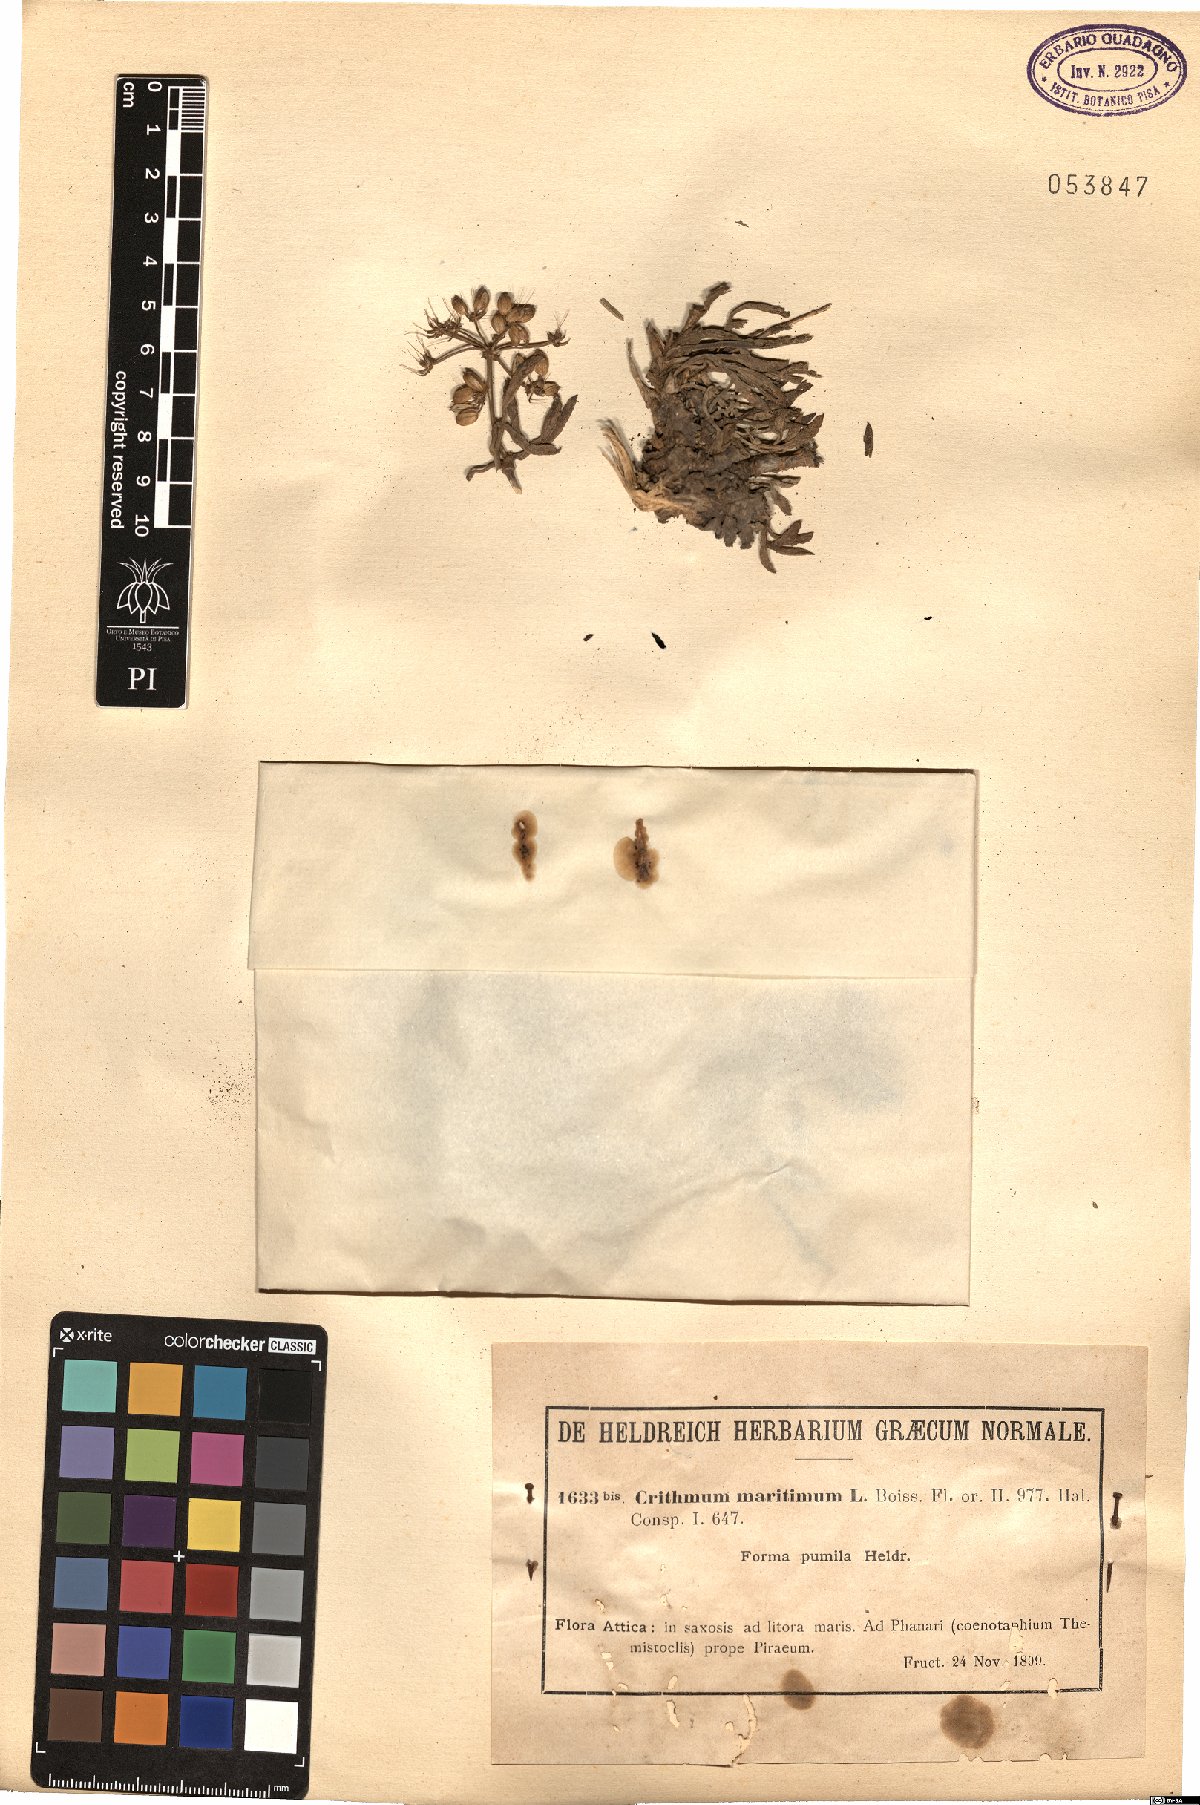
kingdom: Plantae
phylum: Tracheophyta
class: Magnoliopsida
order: Apiales
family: Apiaceae
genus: Crithmum
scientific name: Crithmum maritimum
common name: Rock samphire
